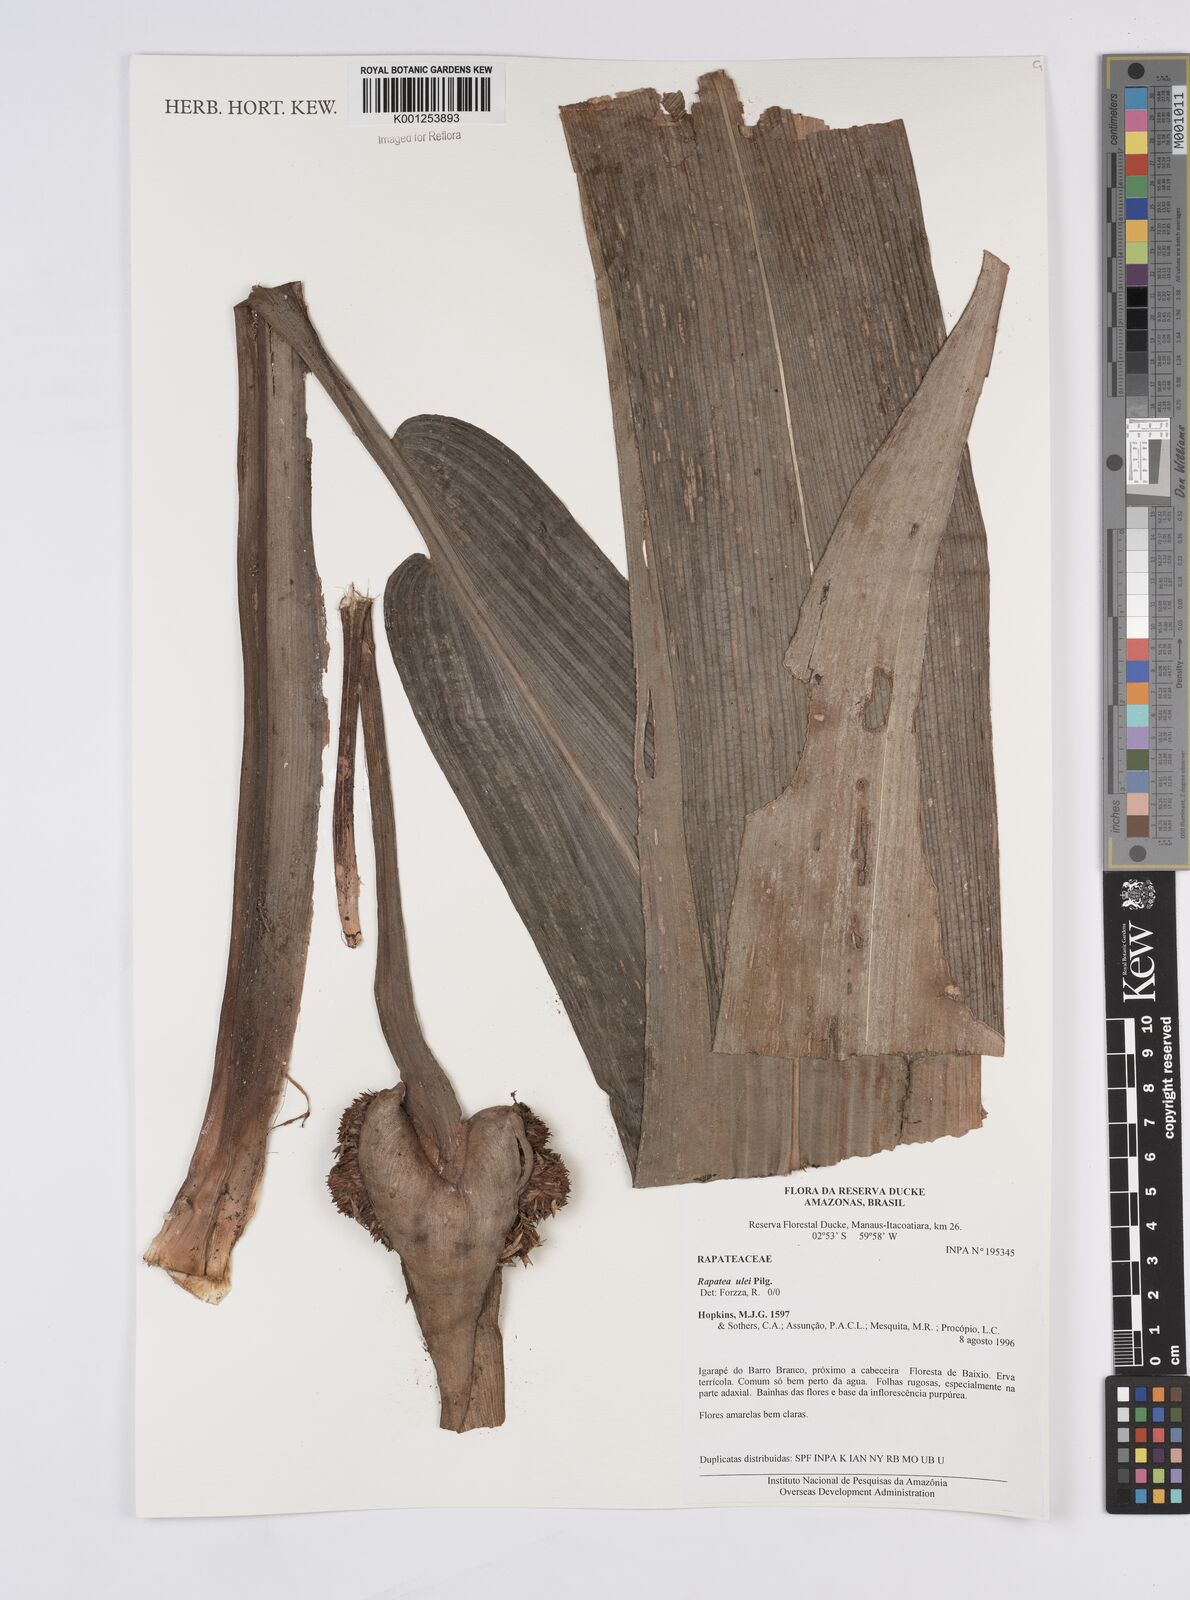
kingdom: Plantae
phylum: Tracheophyta
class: Liliopsida
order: Poales
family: Rapateaceae
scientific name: Rapateaceae
